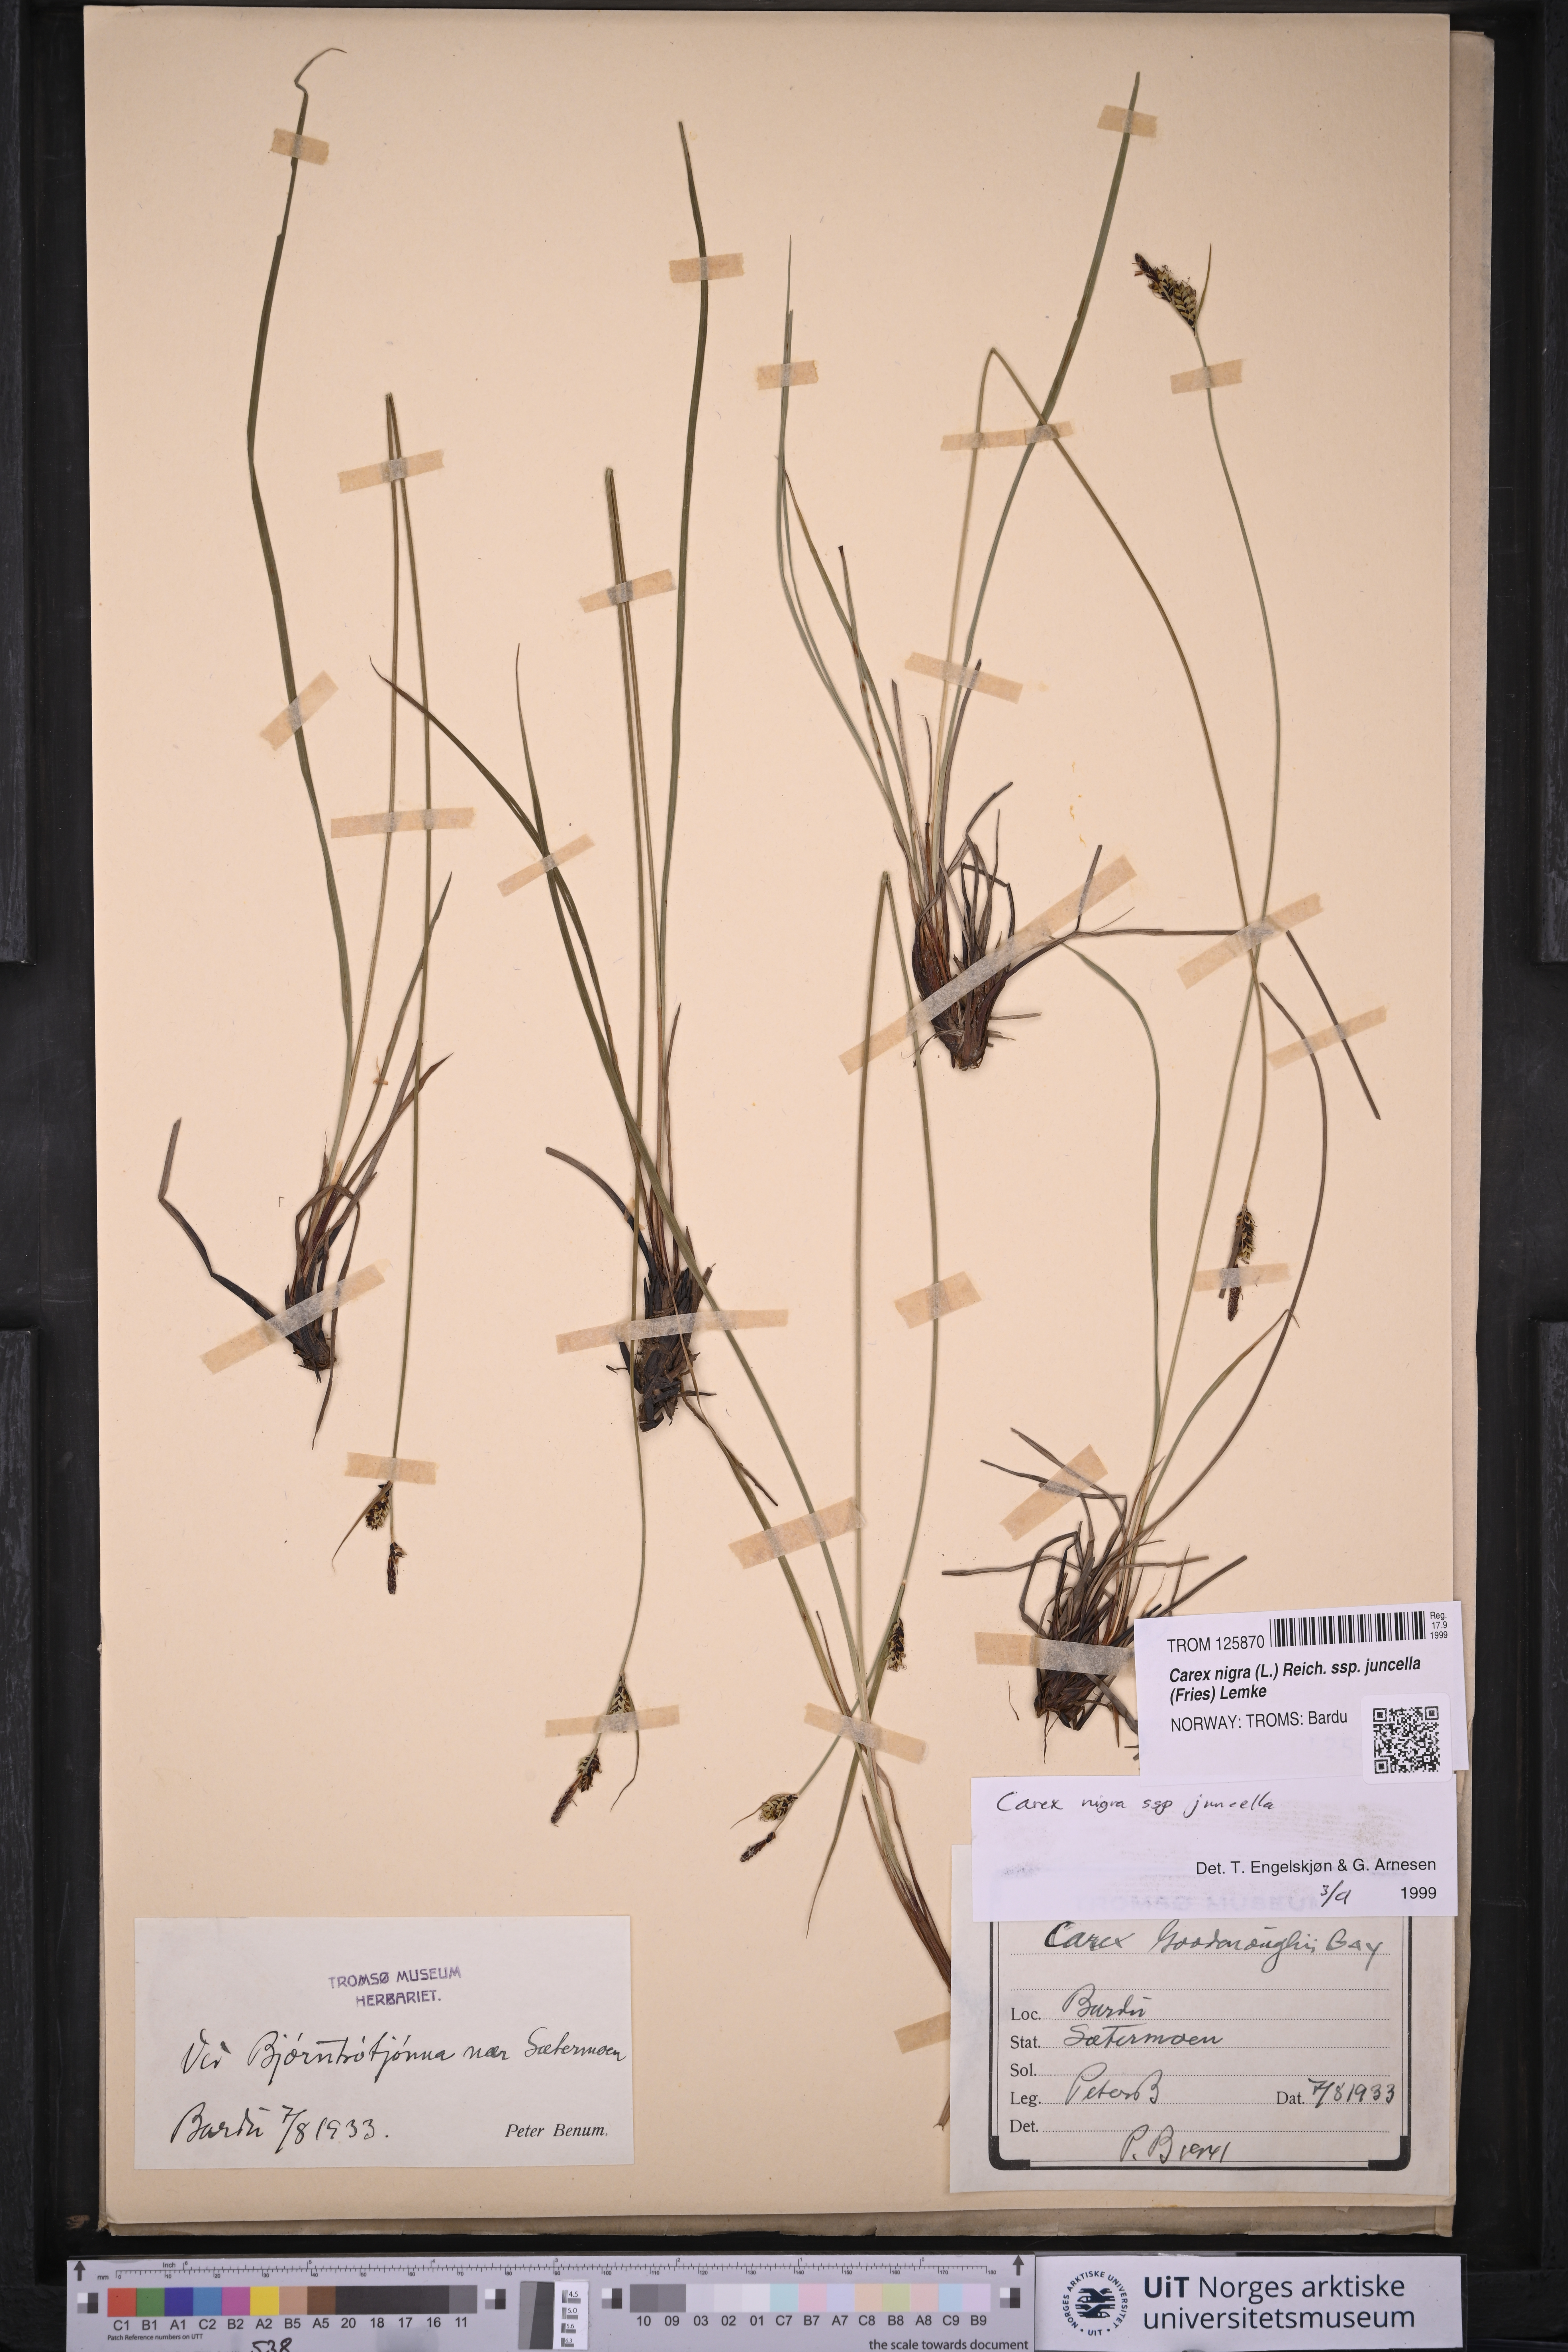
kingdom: Plantae
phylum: Tracheophyta
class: Liliopsida
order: Poales
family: Cyperaceae
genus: Carex
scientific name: Carex nigra
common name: Common sedge
